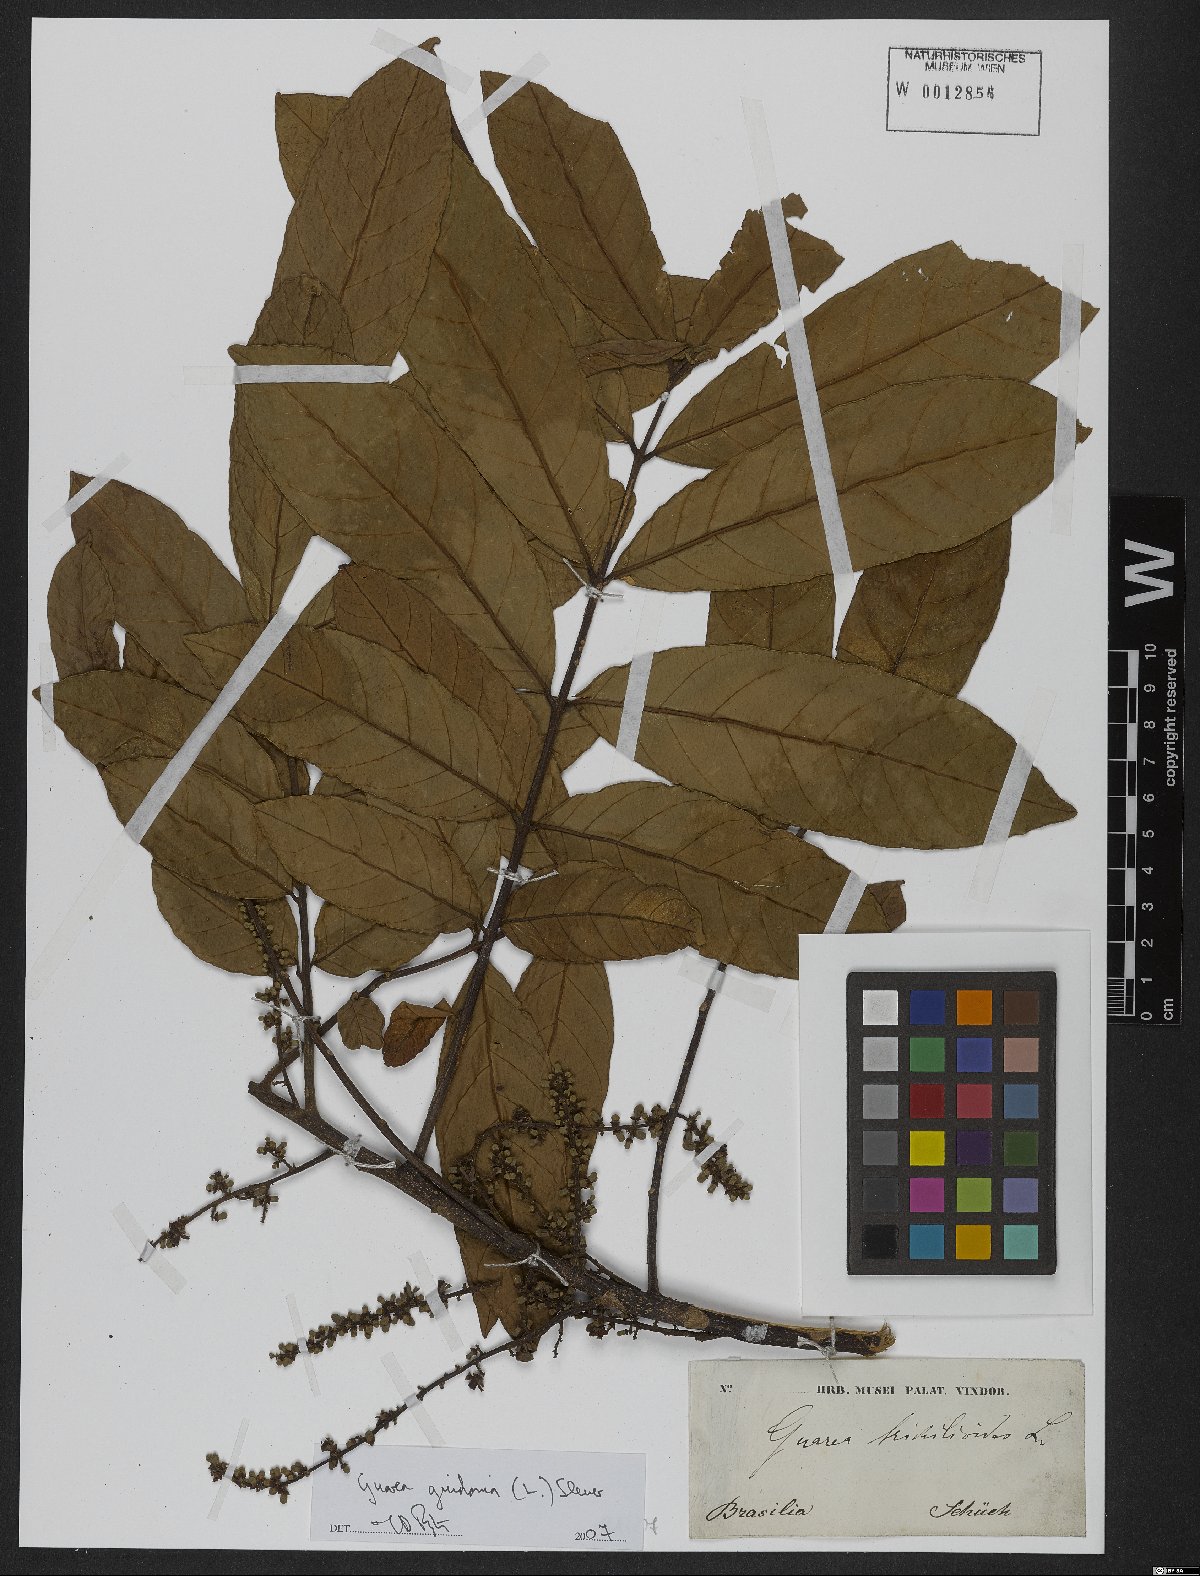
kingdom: Plantae
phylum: Tracheophyta
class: Magnoliopsida
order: Sapindales
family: Meliaceae
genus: Guarea
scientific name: Guarea guidonia
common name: American muskwood
